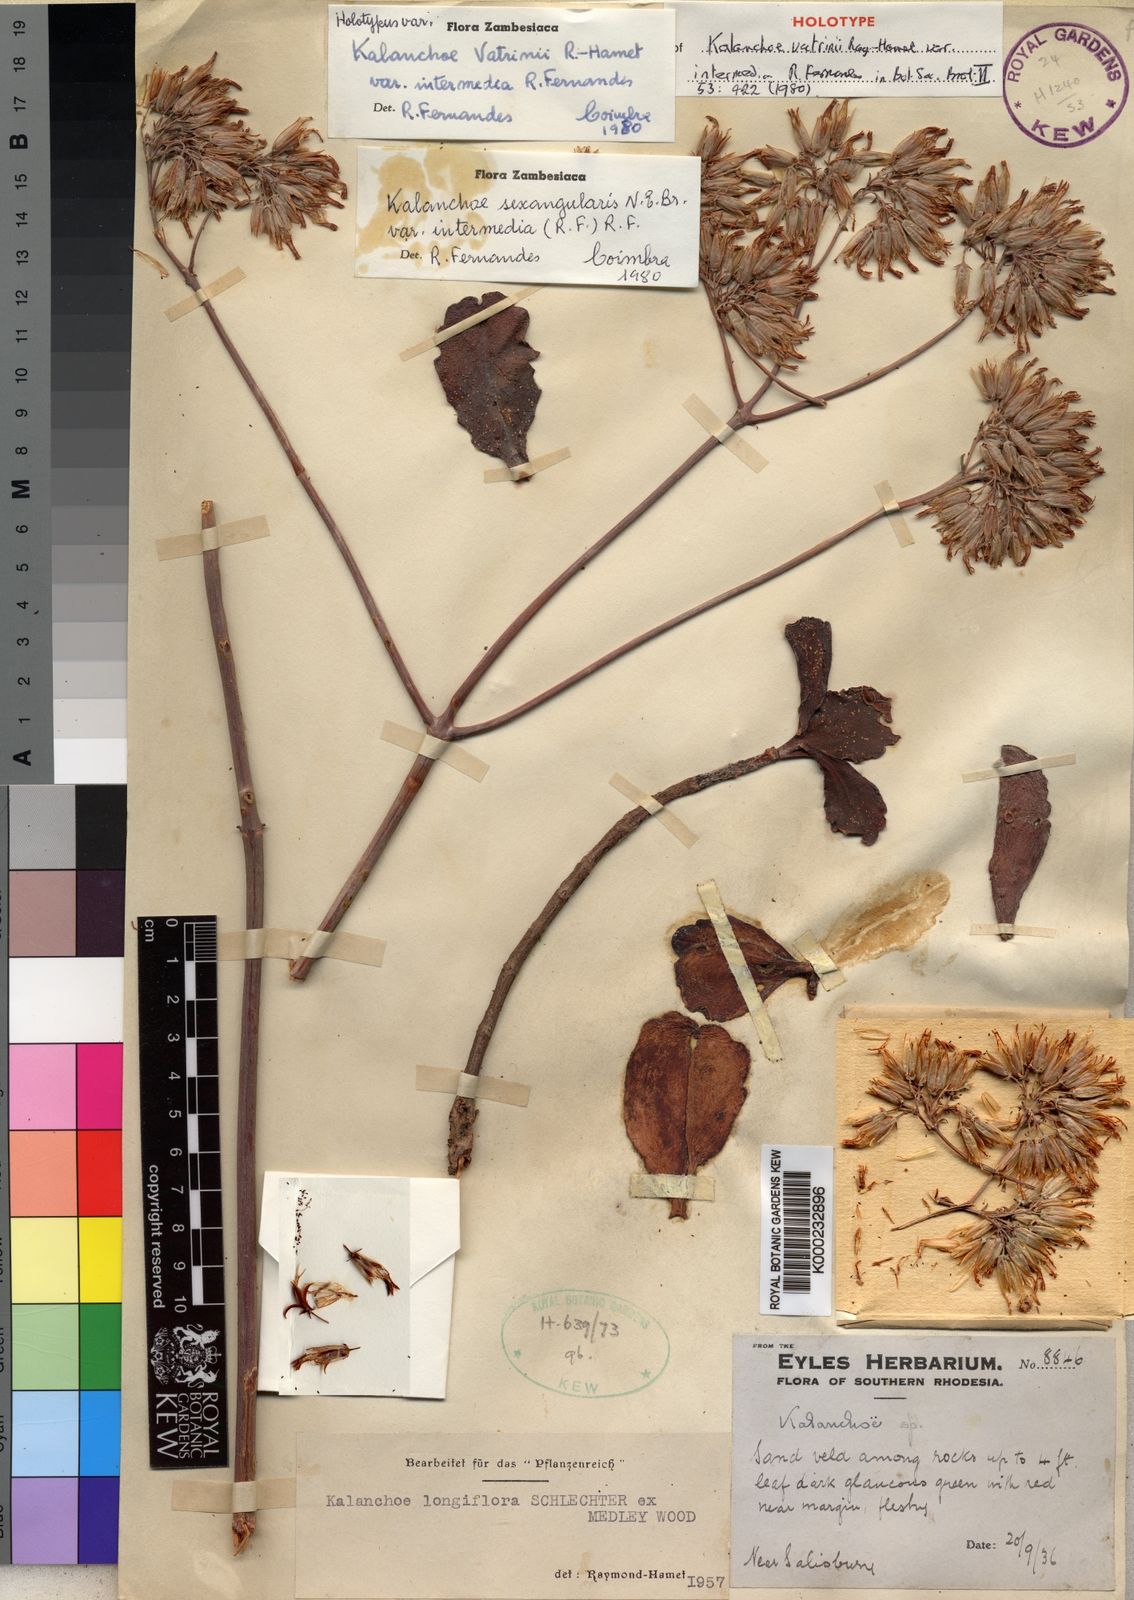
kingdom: Plantae
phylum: Tracheophyta
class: Magnoliopsida
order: Saxifragales
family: Crassulaceae
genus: Kalanchoe
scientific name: Kalanchoe sexangularis
